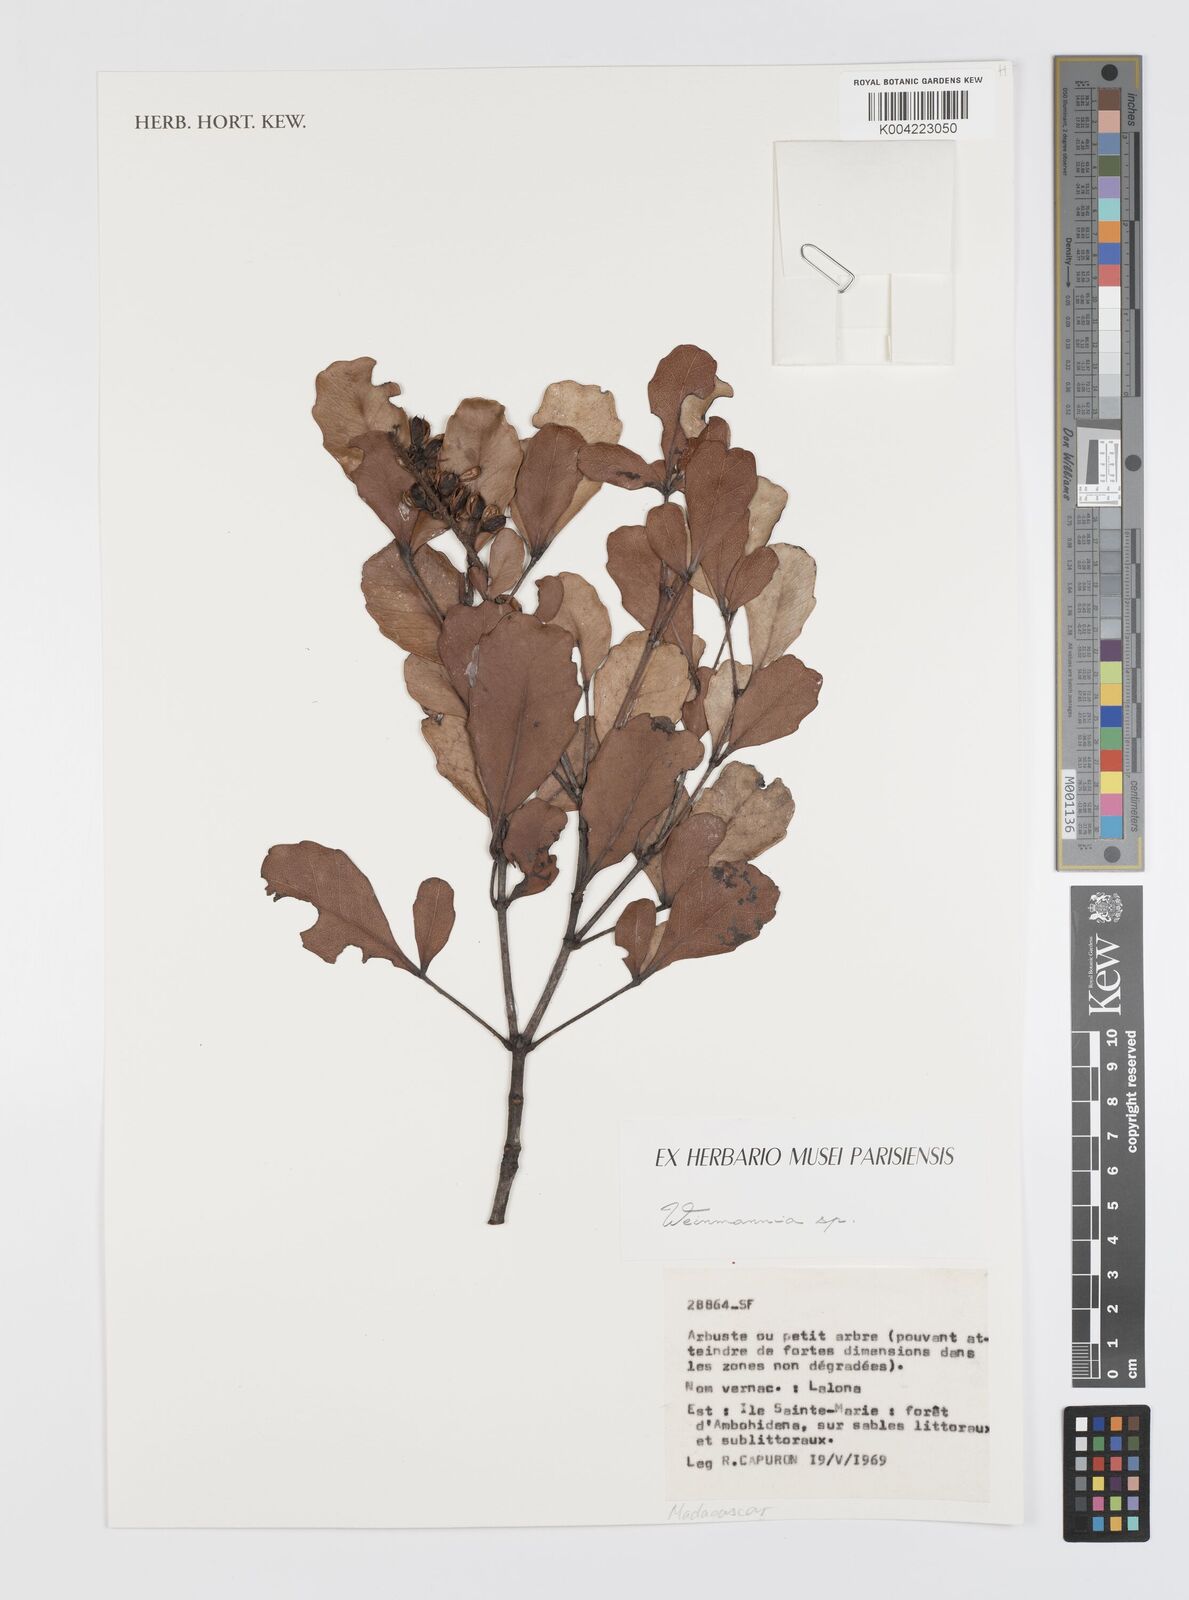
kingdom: Plantae
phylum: Tracheophyta
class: Magnoliopsida
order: Oxalidales
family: Cunoniaceae
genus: Weinmannia
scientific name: Weinmannia
